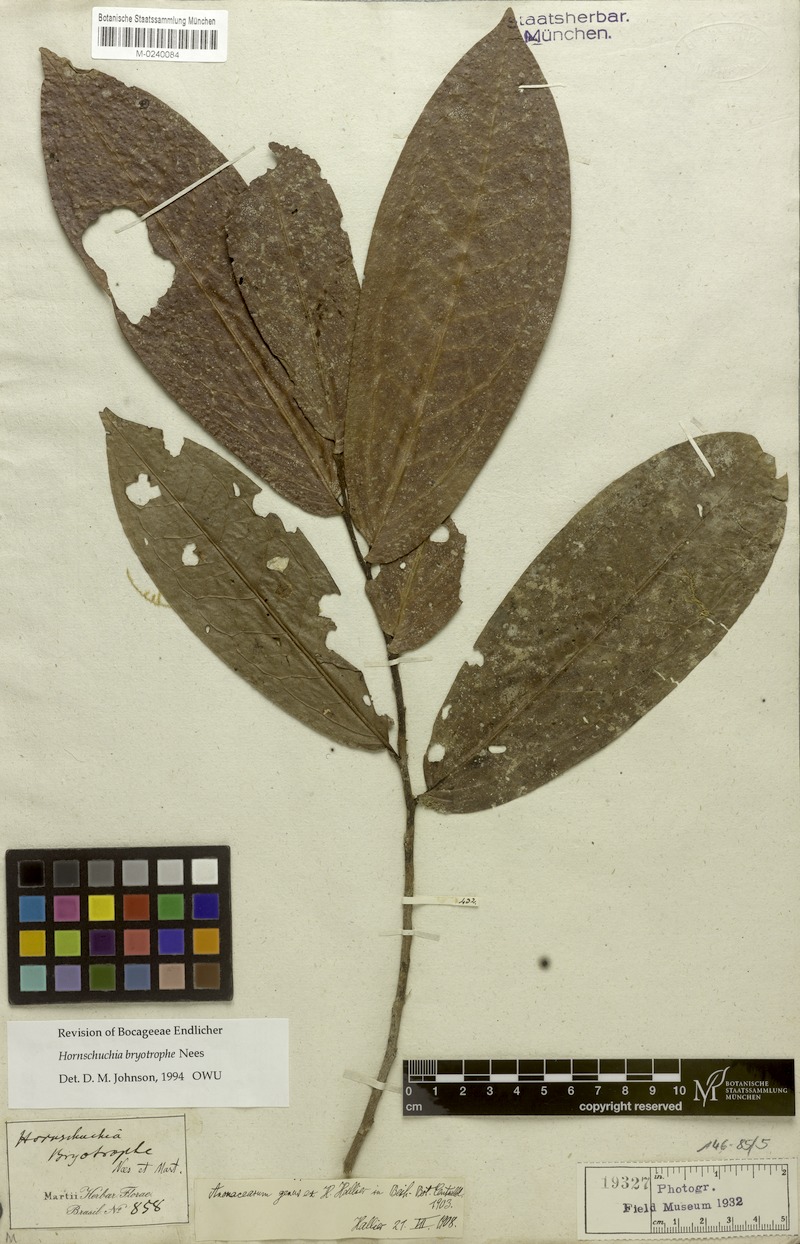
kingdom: Plantae
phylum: Tracheophyta
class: Magnoliopsida
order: Magnoliales
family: Annonaceae
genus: Hornschuchia
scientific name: Hornschuchia bryotrophe
